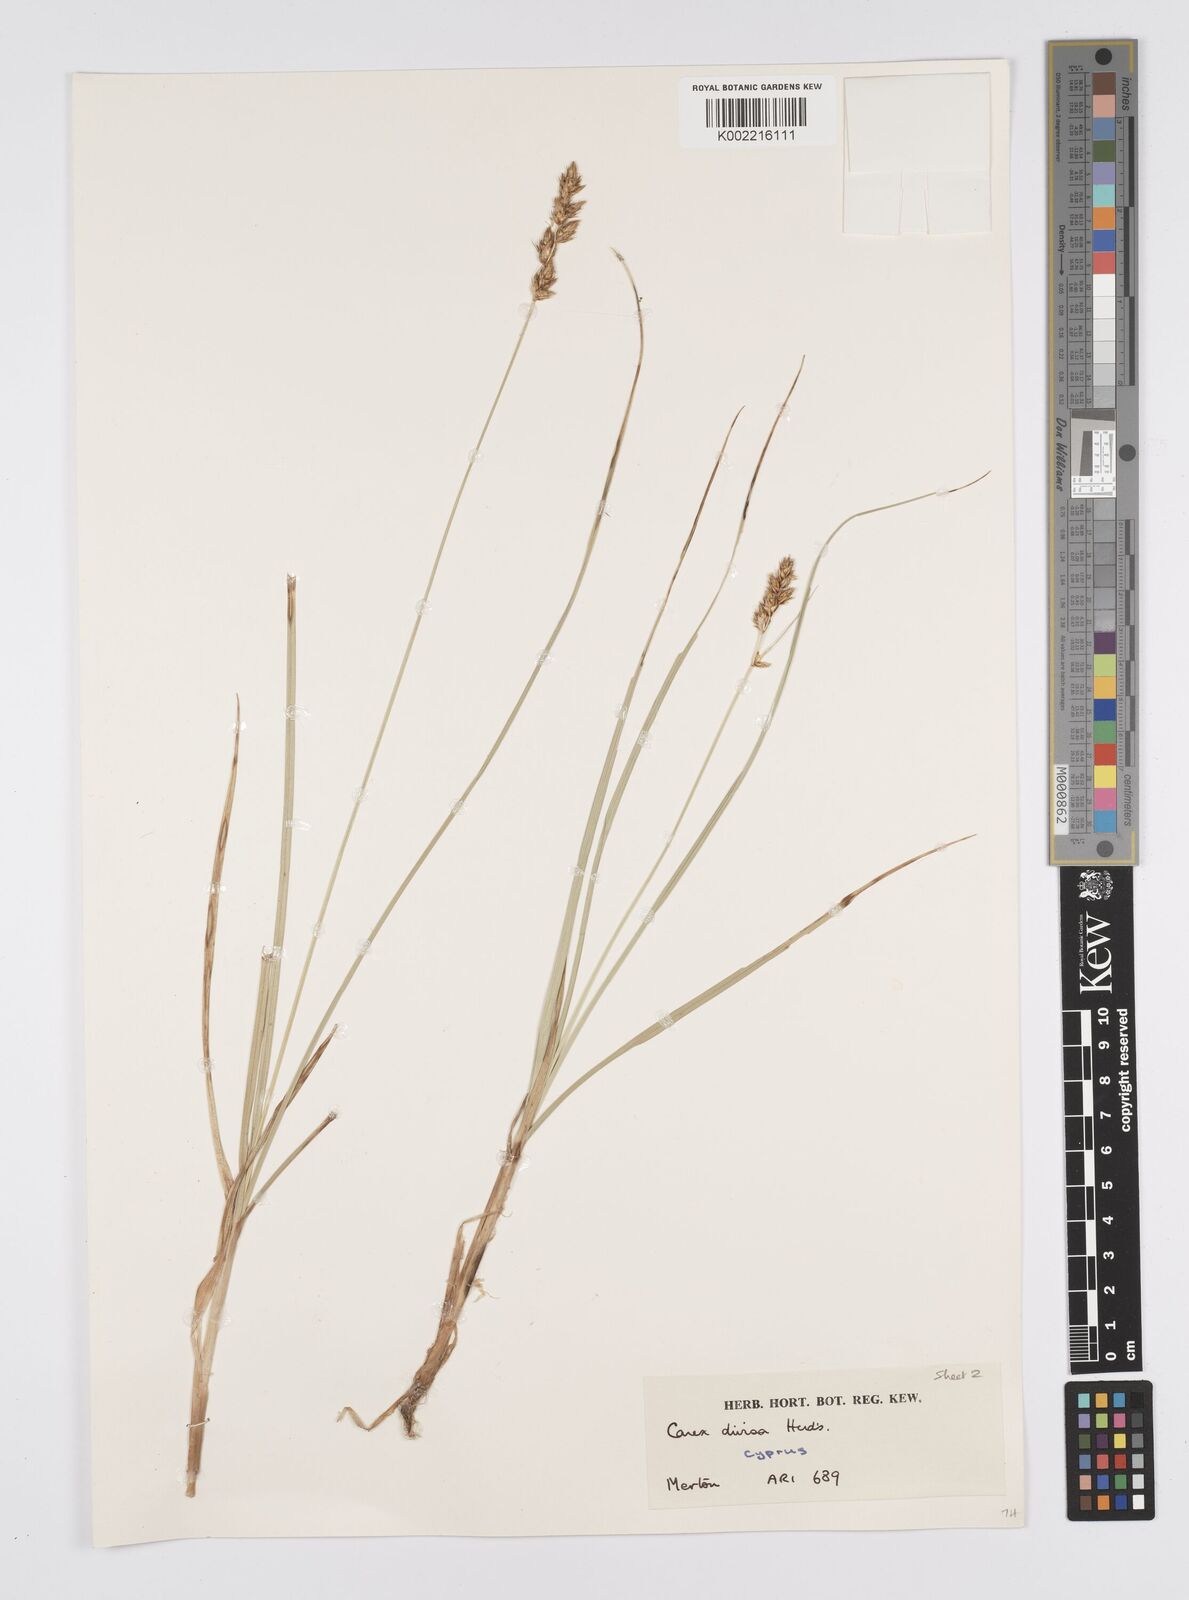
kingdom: Plantae
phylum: Tracheophyta
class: Liliopsida
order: Poales
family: Cyperaceae
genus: Carex
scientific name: Carex divisa
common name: Divided sedge
